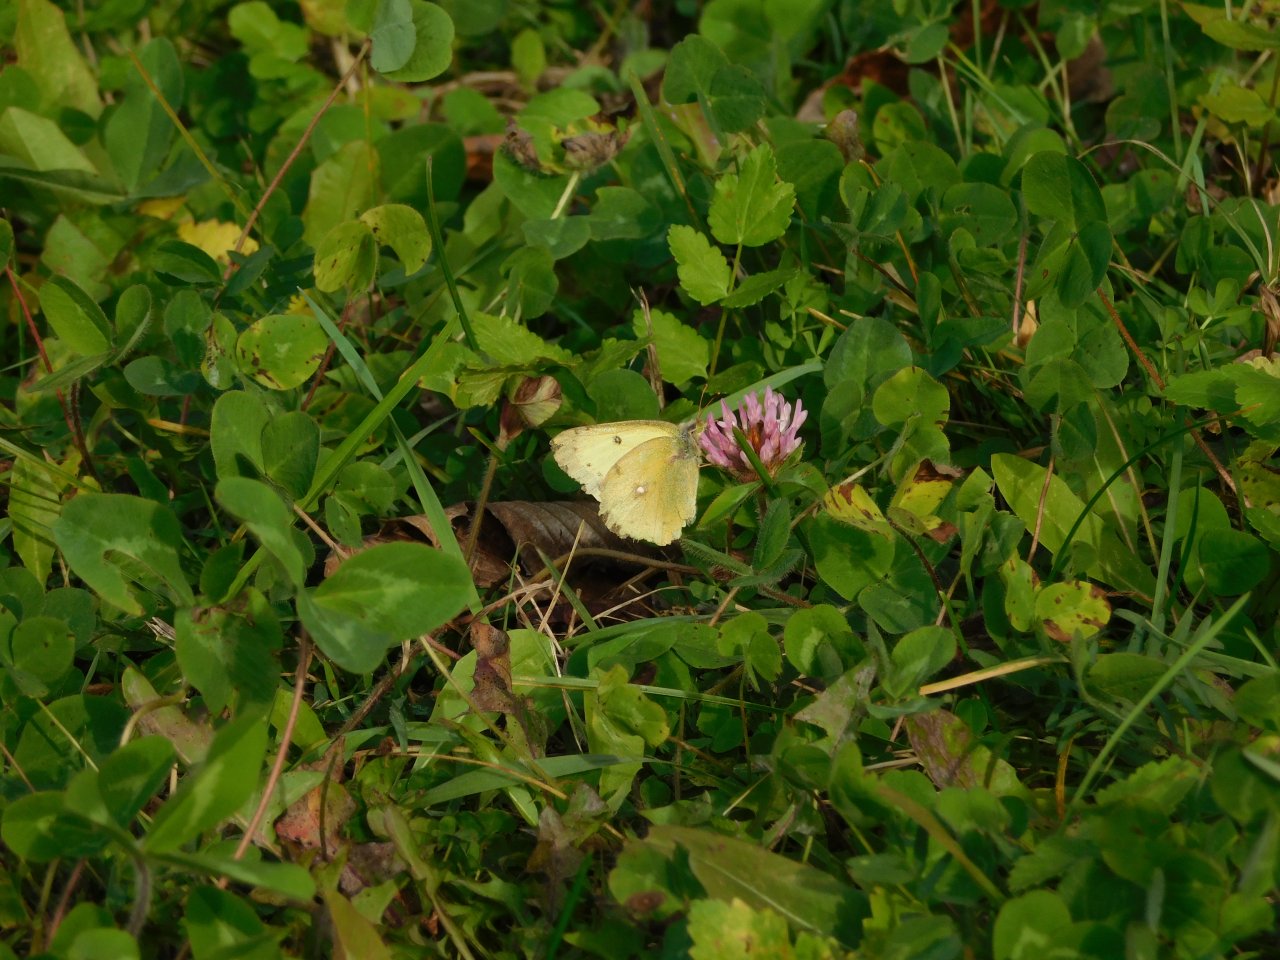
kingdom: Animalia
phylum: Arthropoda
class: Insecta
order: Lepidoptera
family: Pieridae
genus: Colias
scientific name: Colias philodice
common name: Clouded Sulphur
